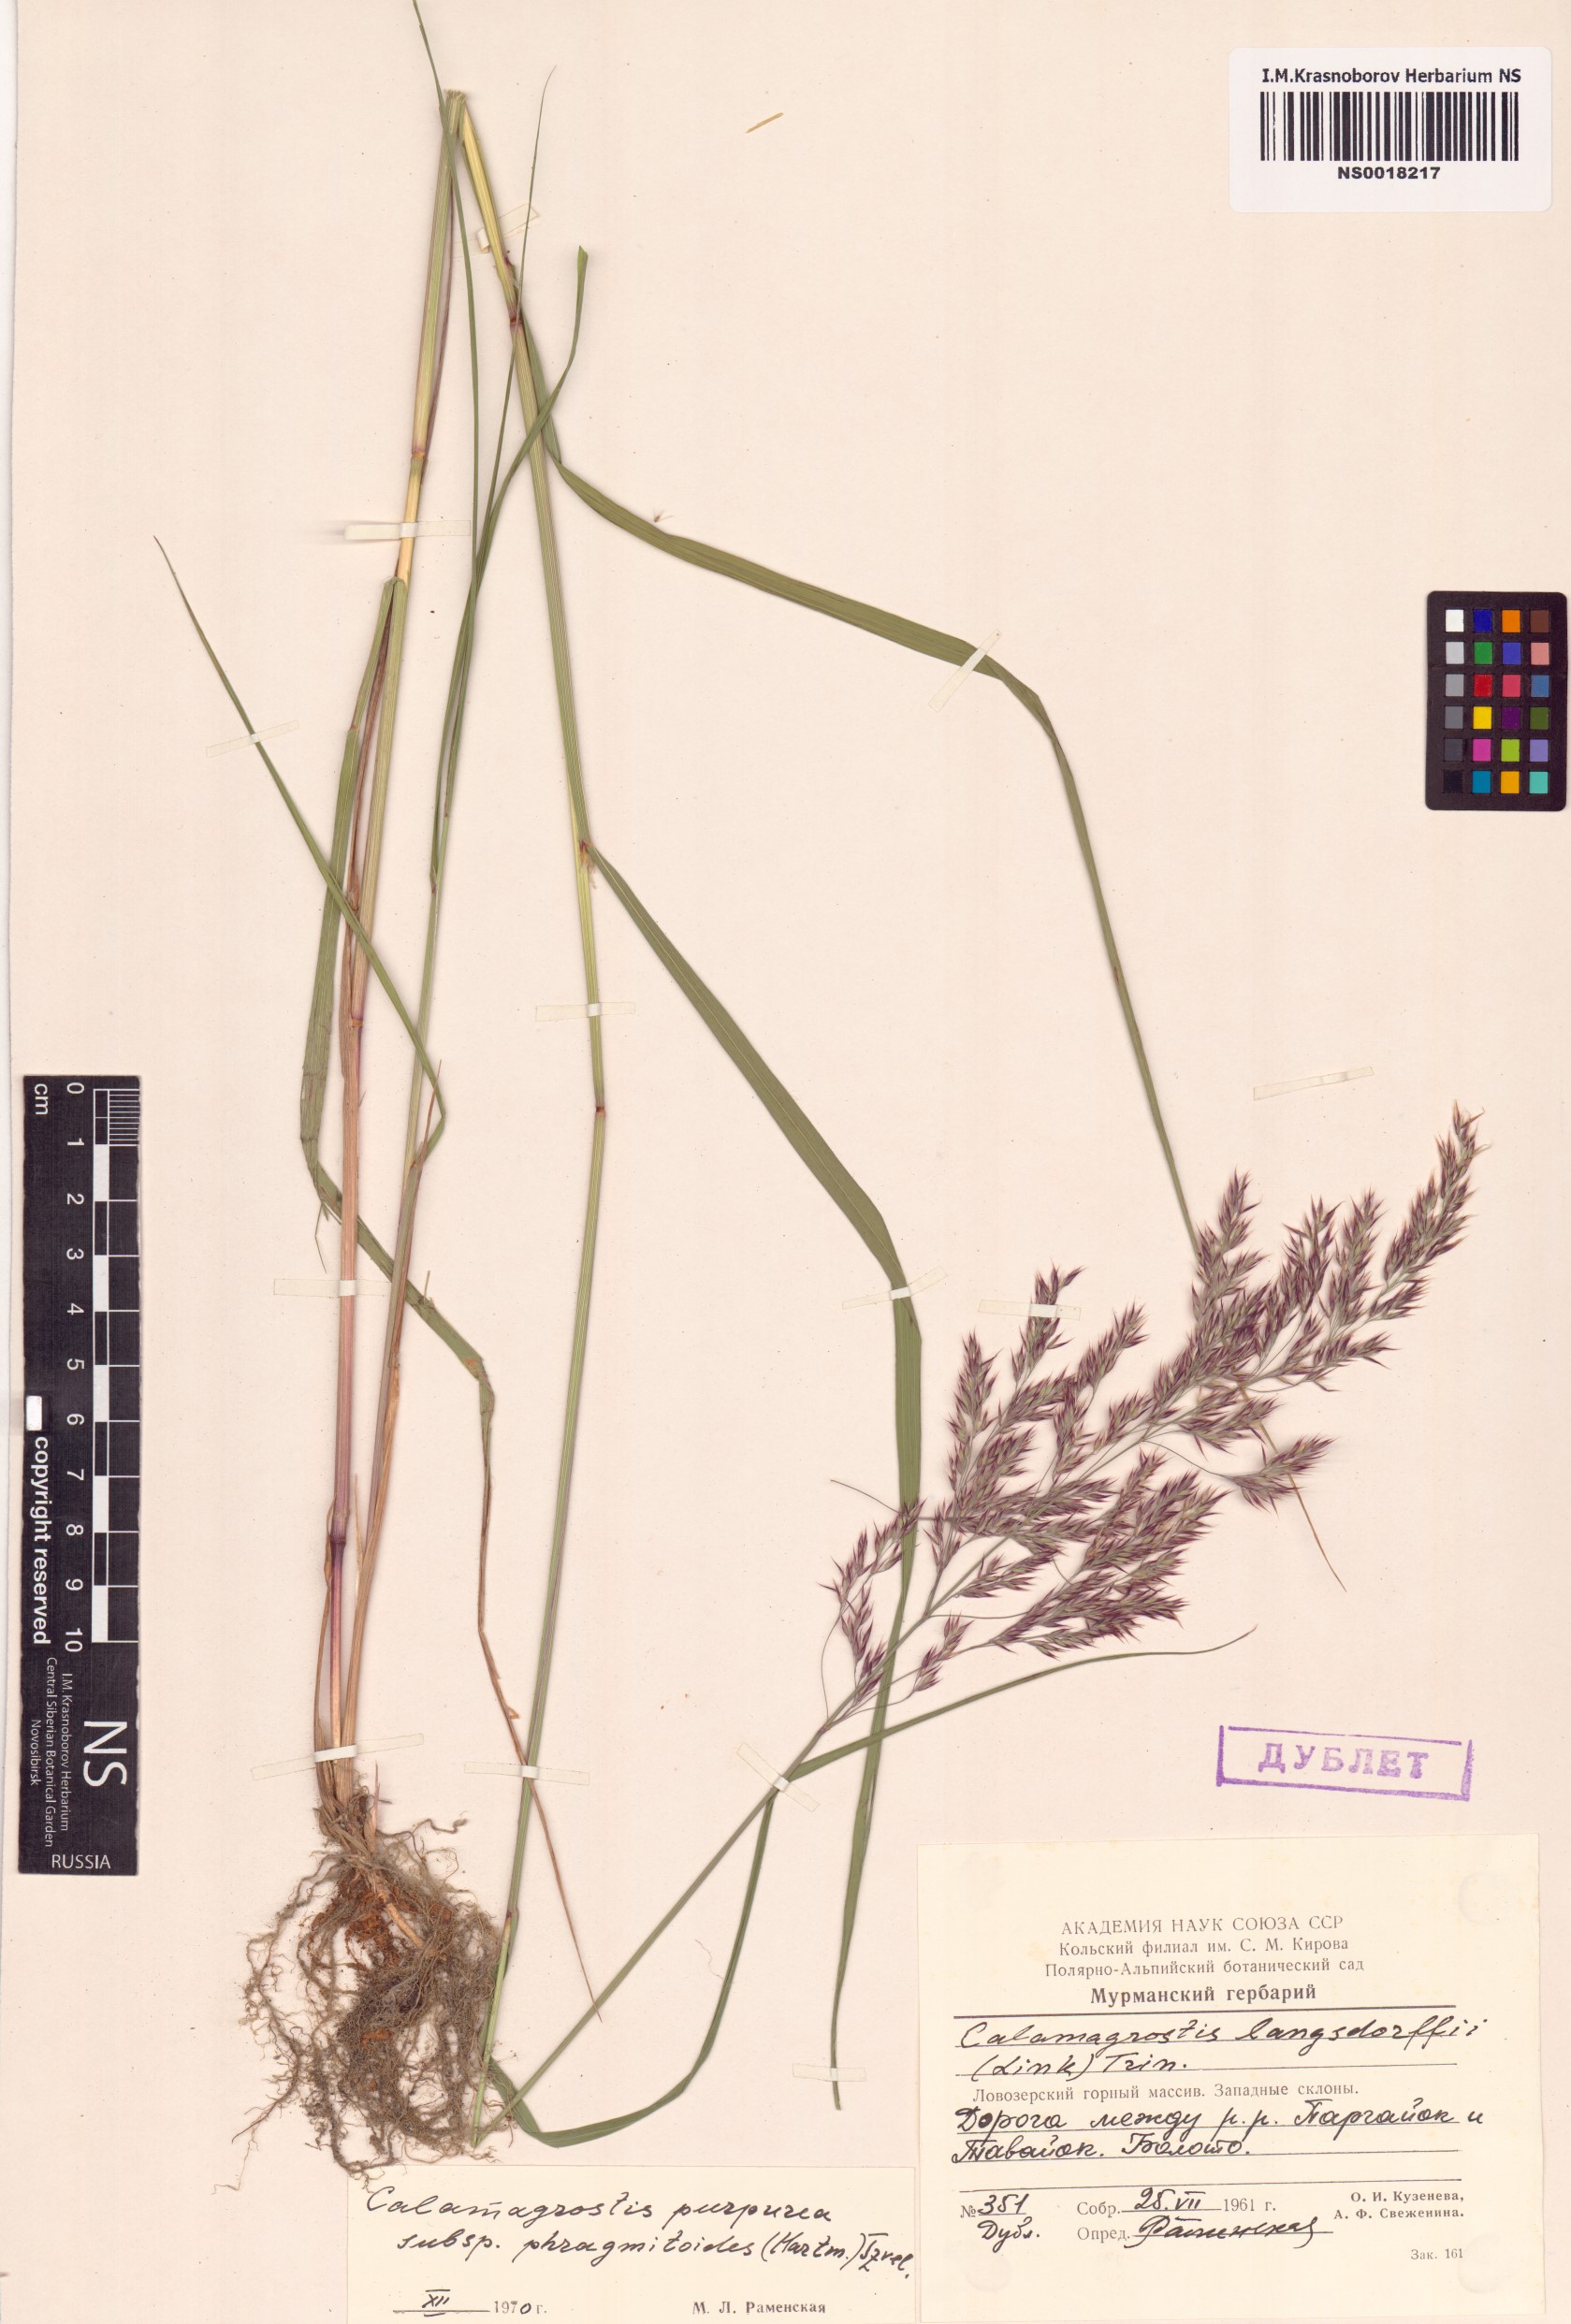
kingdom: Plantae
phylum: Tracheophyta
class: Liliopsida
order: Poales
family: Poaceae
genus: Calamagrostis
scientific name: Calamagrostis purpurea
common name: Scandinavian small-reed
